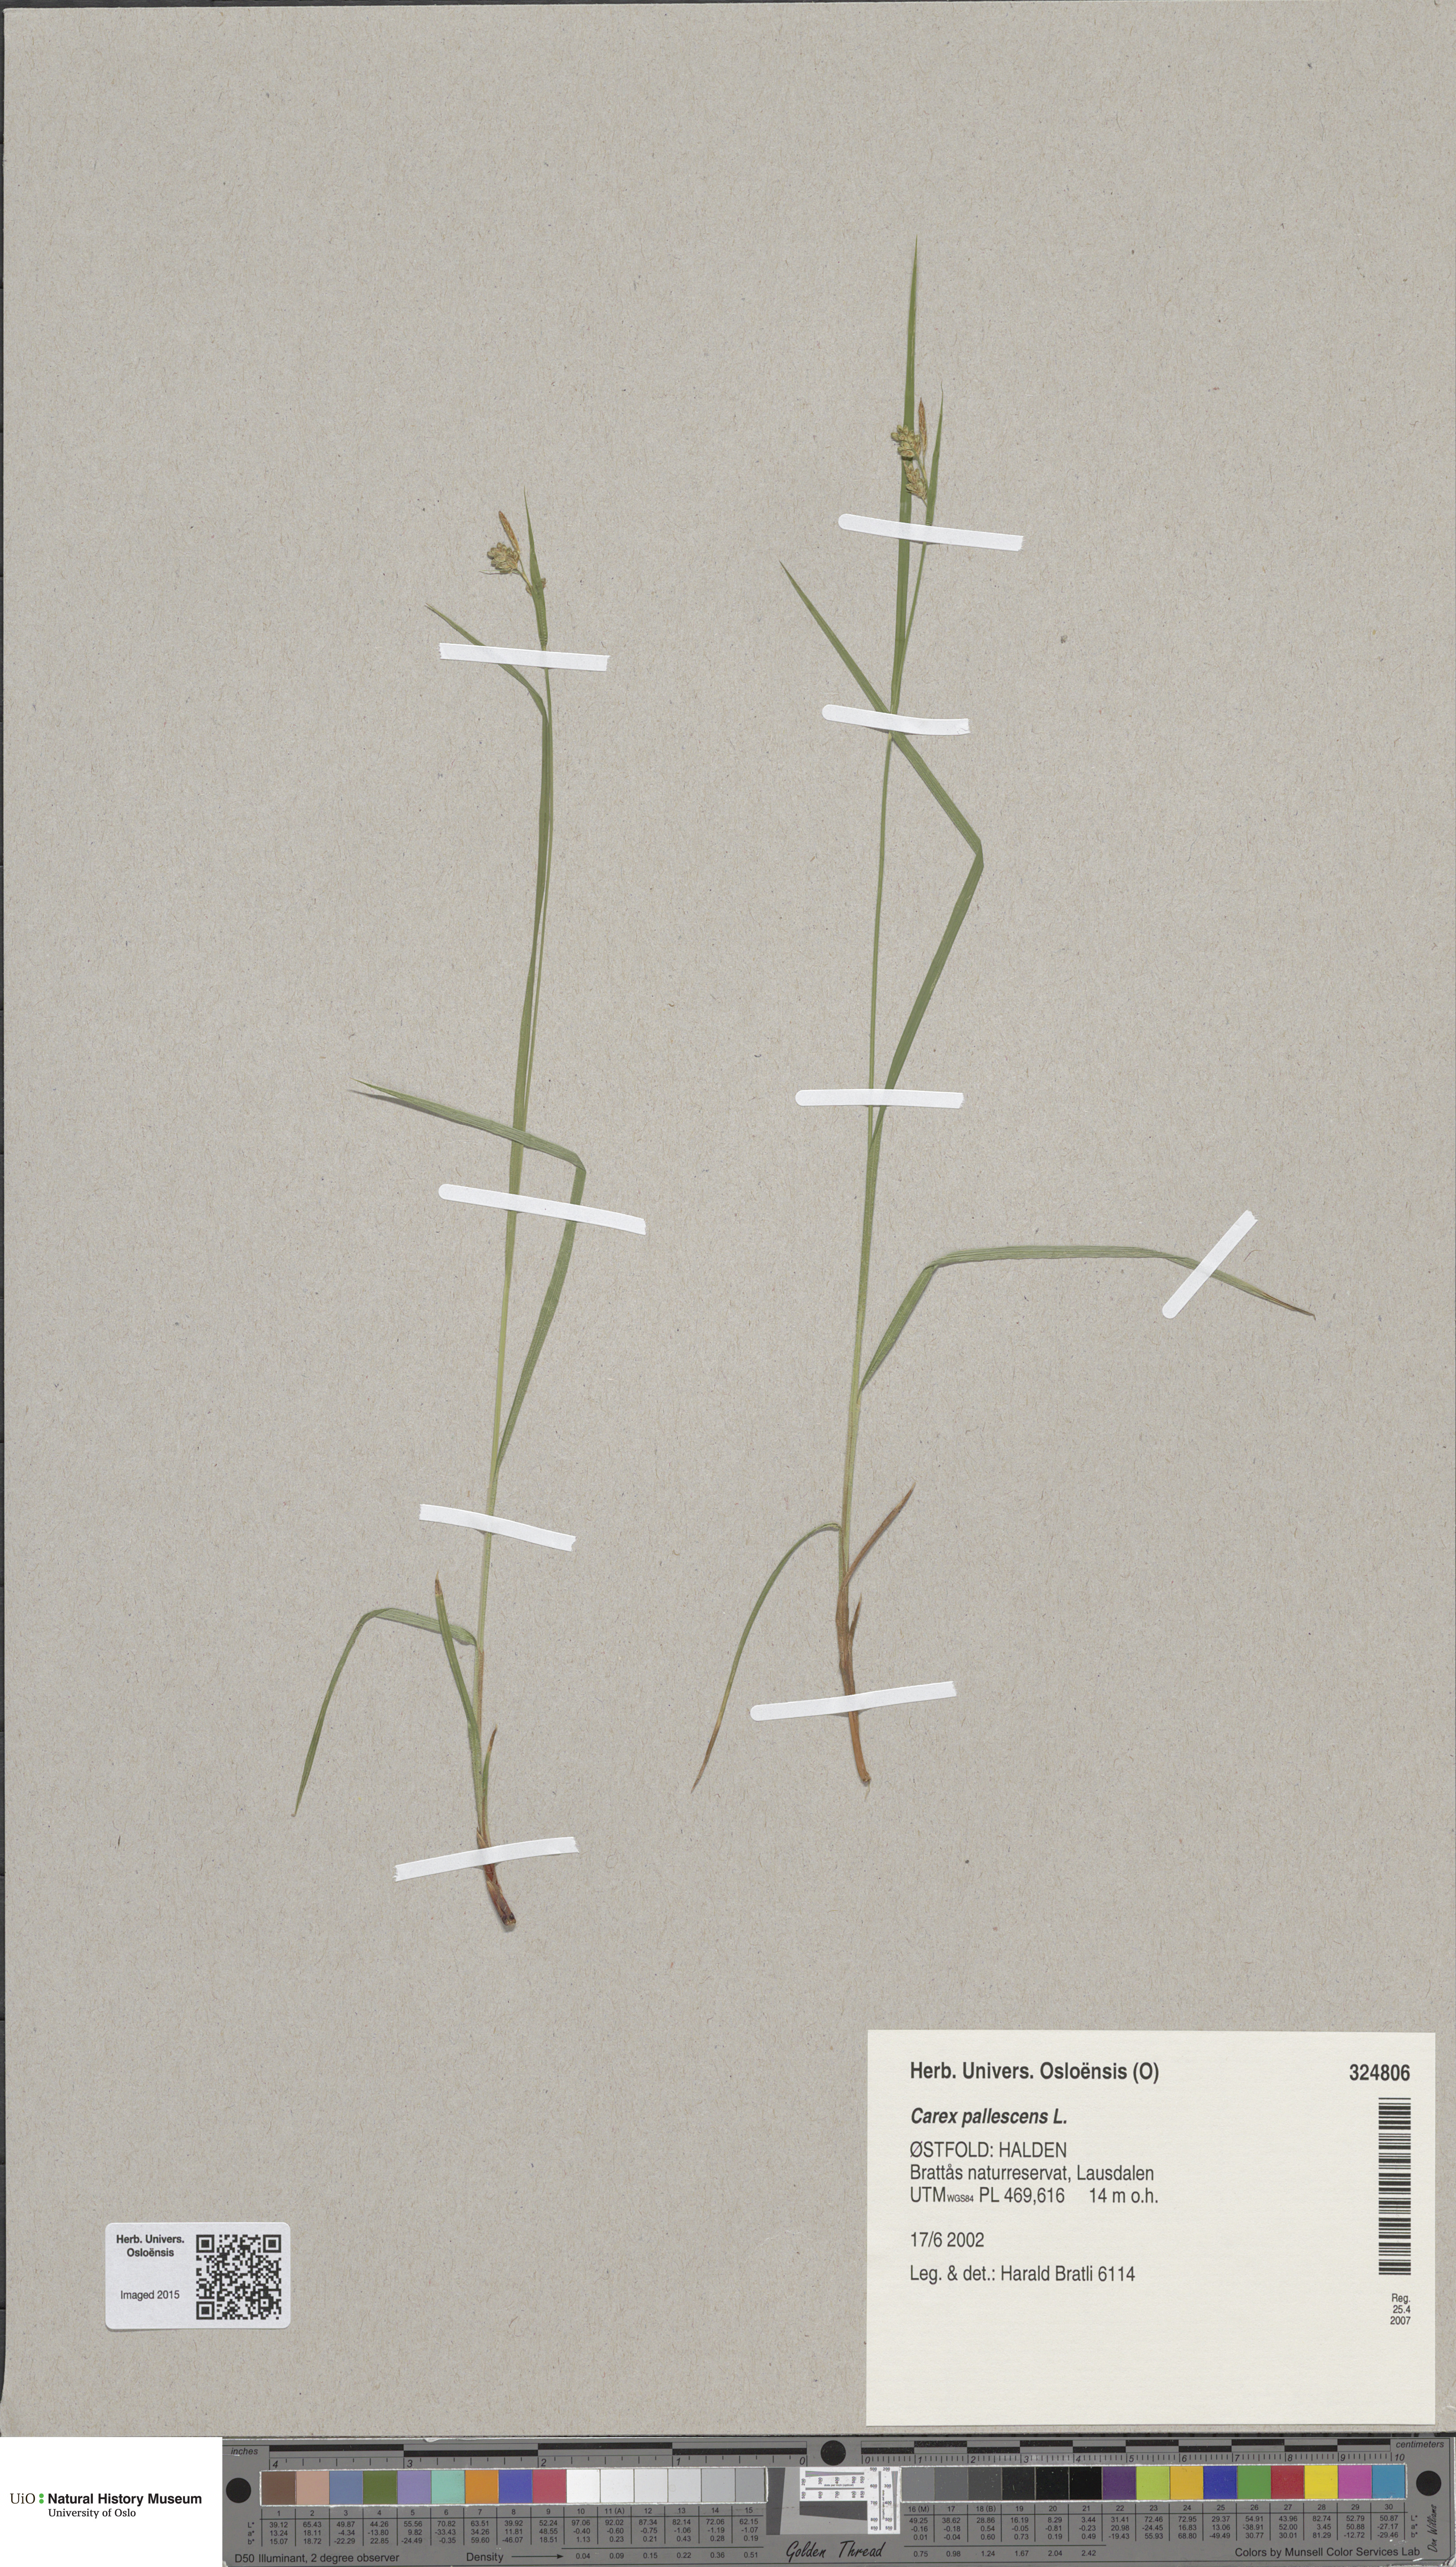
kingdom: Plantae
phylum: Tracheophyta
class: Liliopsida
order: Poales
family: Cyperaceae
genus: Carex
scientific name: Carex pallescens
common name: Pale sedge
